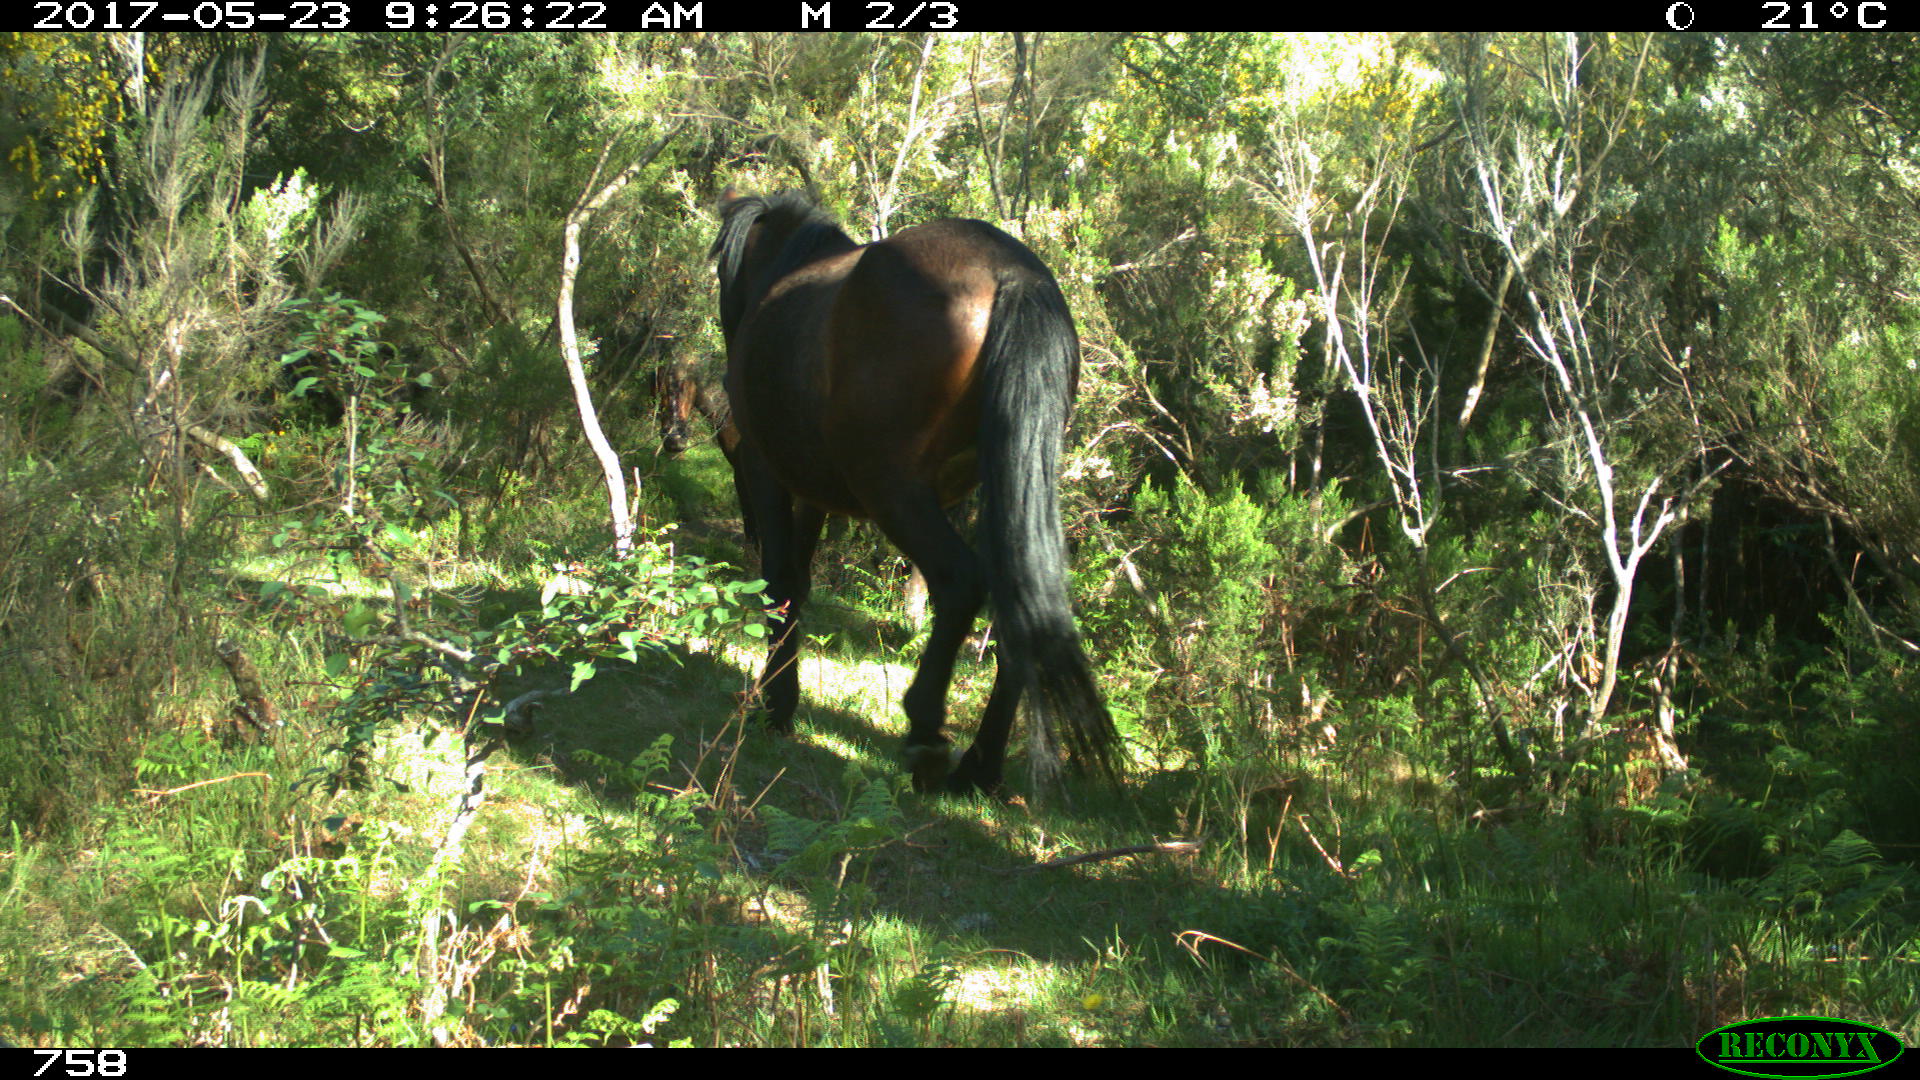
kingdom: Animalia
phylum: Chordata
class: Mammalia
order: Perissodactyla
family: Equidae
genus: Equus
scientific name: Equus caballus
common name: Horse
